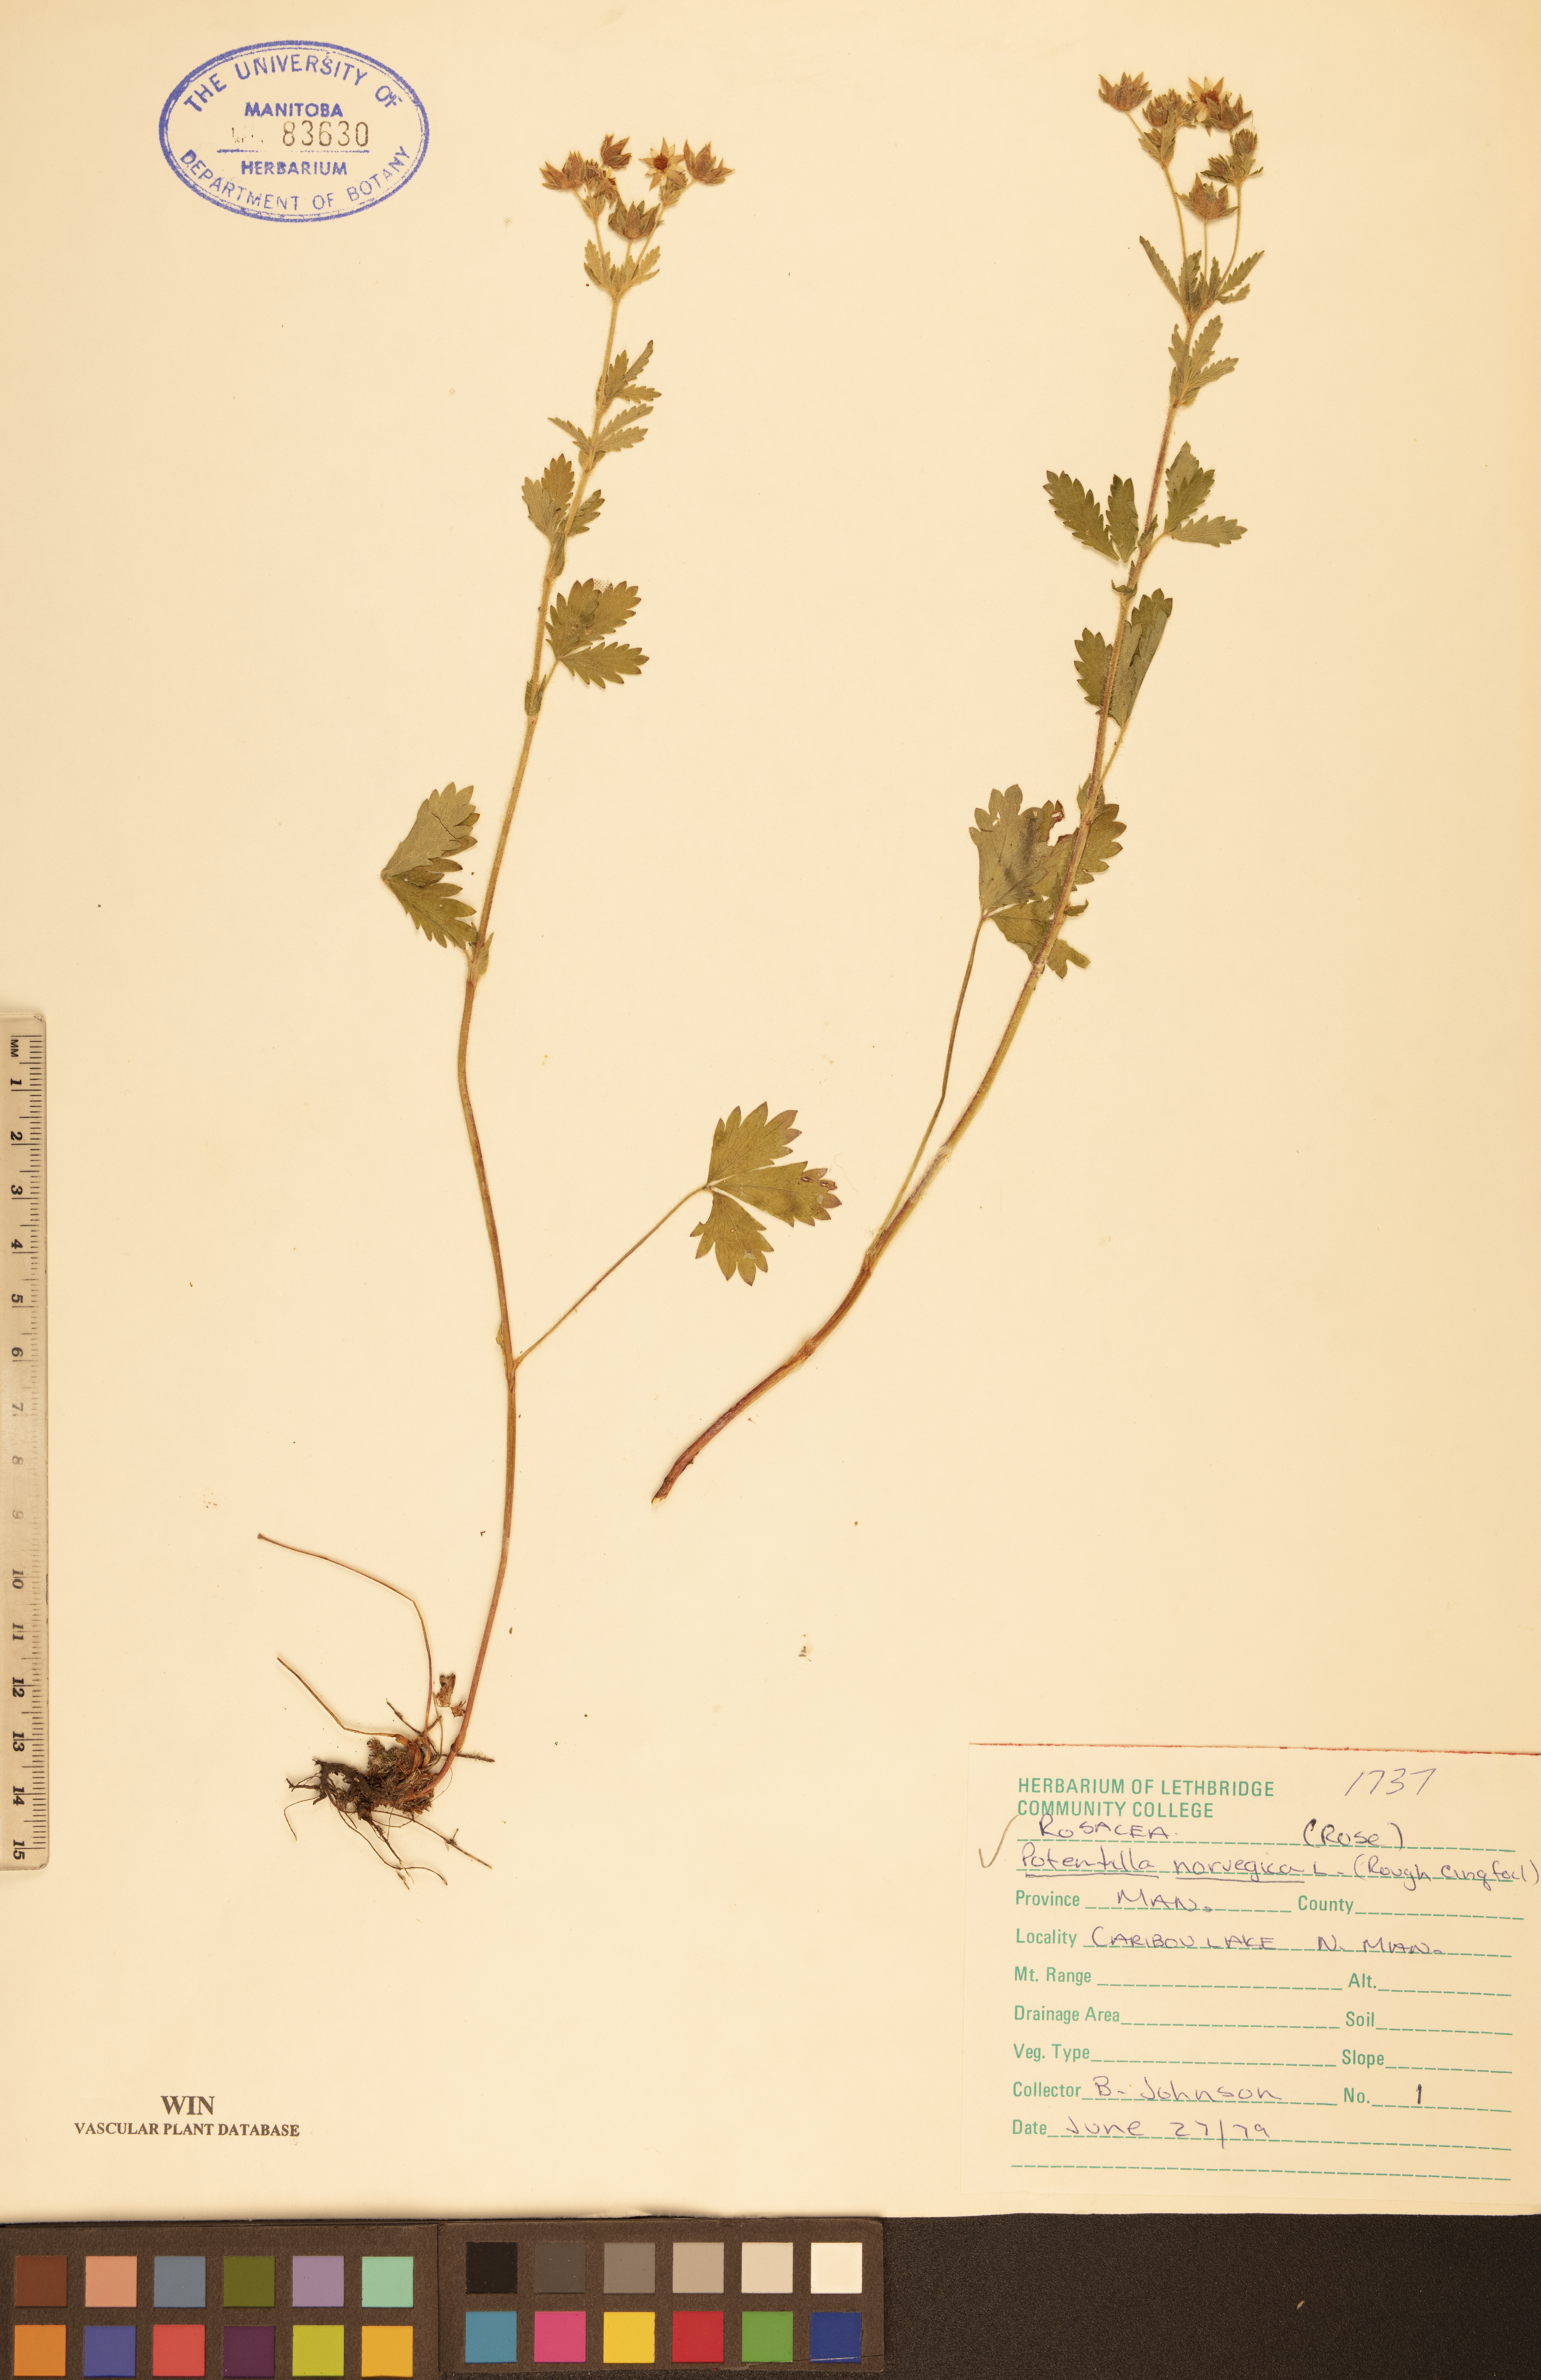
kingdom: Plantae
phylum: Tracheophyta
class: Magnoliopsida
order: Rosales
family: Rosaceae
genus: Potentilla
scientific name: Potentilla norvegica
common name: Ternate-leaved cinquefoil
